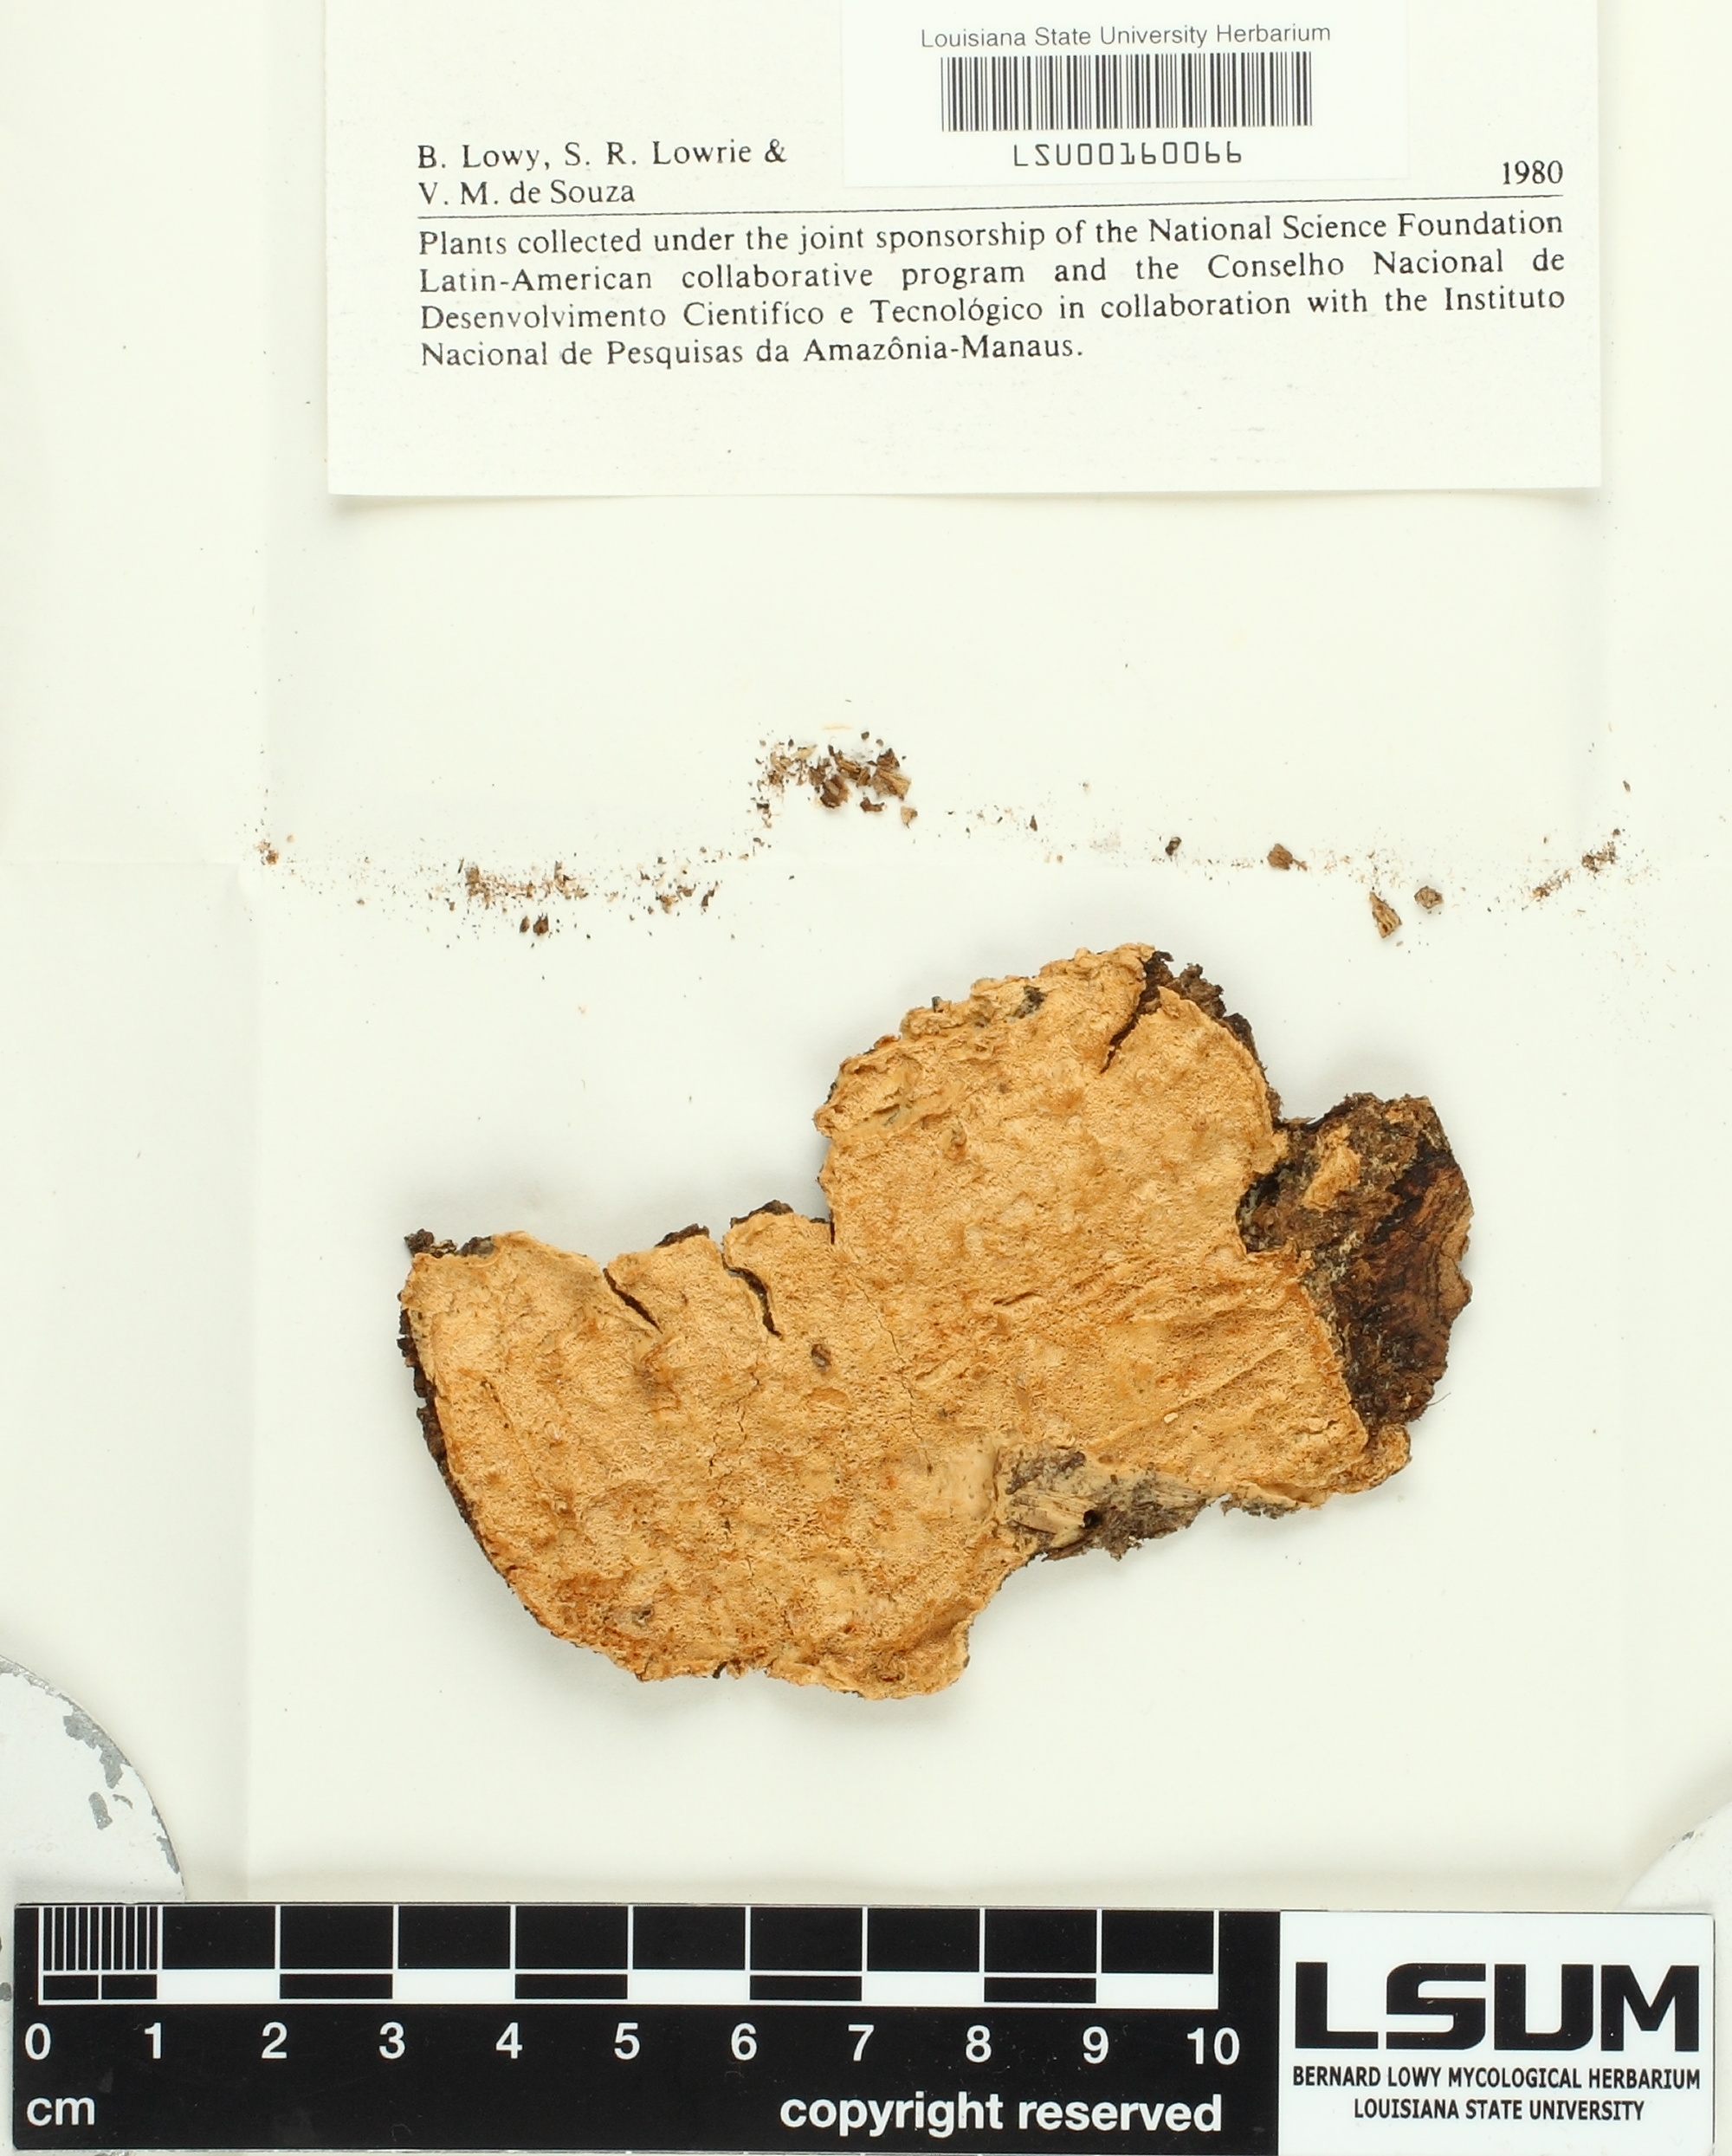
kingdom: Fungi
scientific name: Fungi
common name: Fungi
